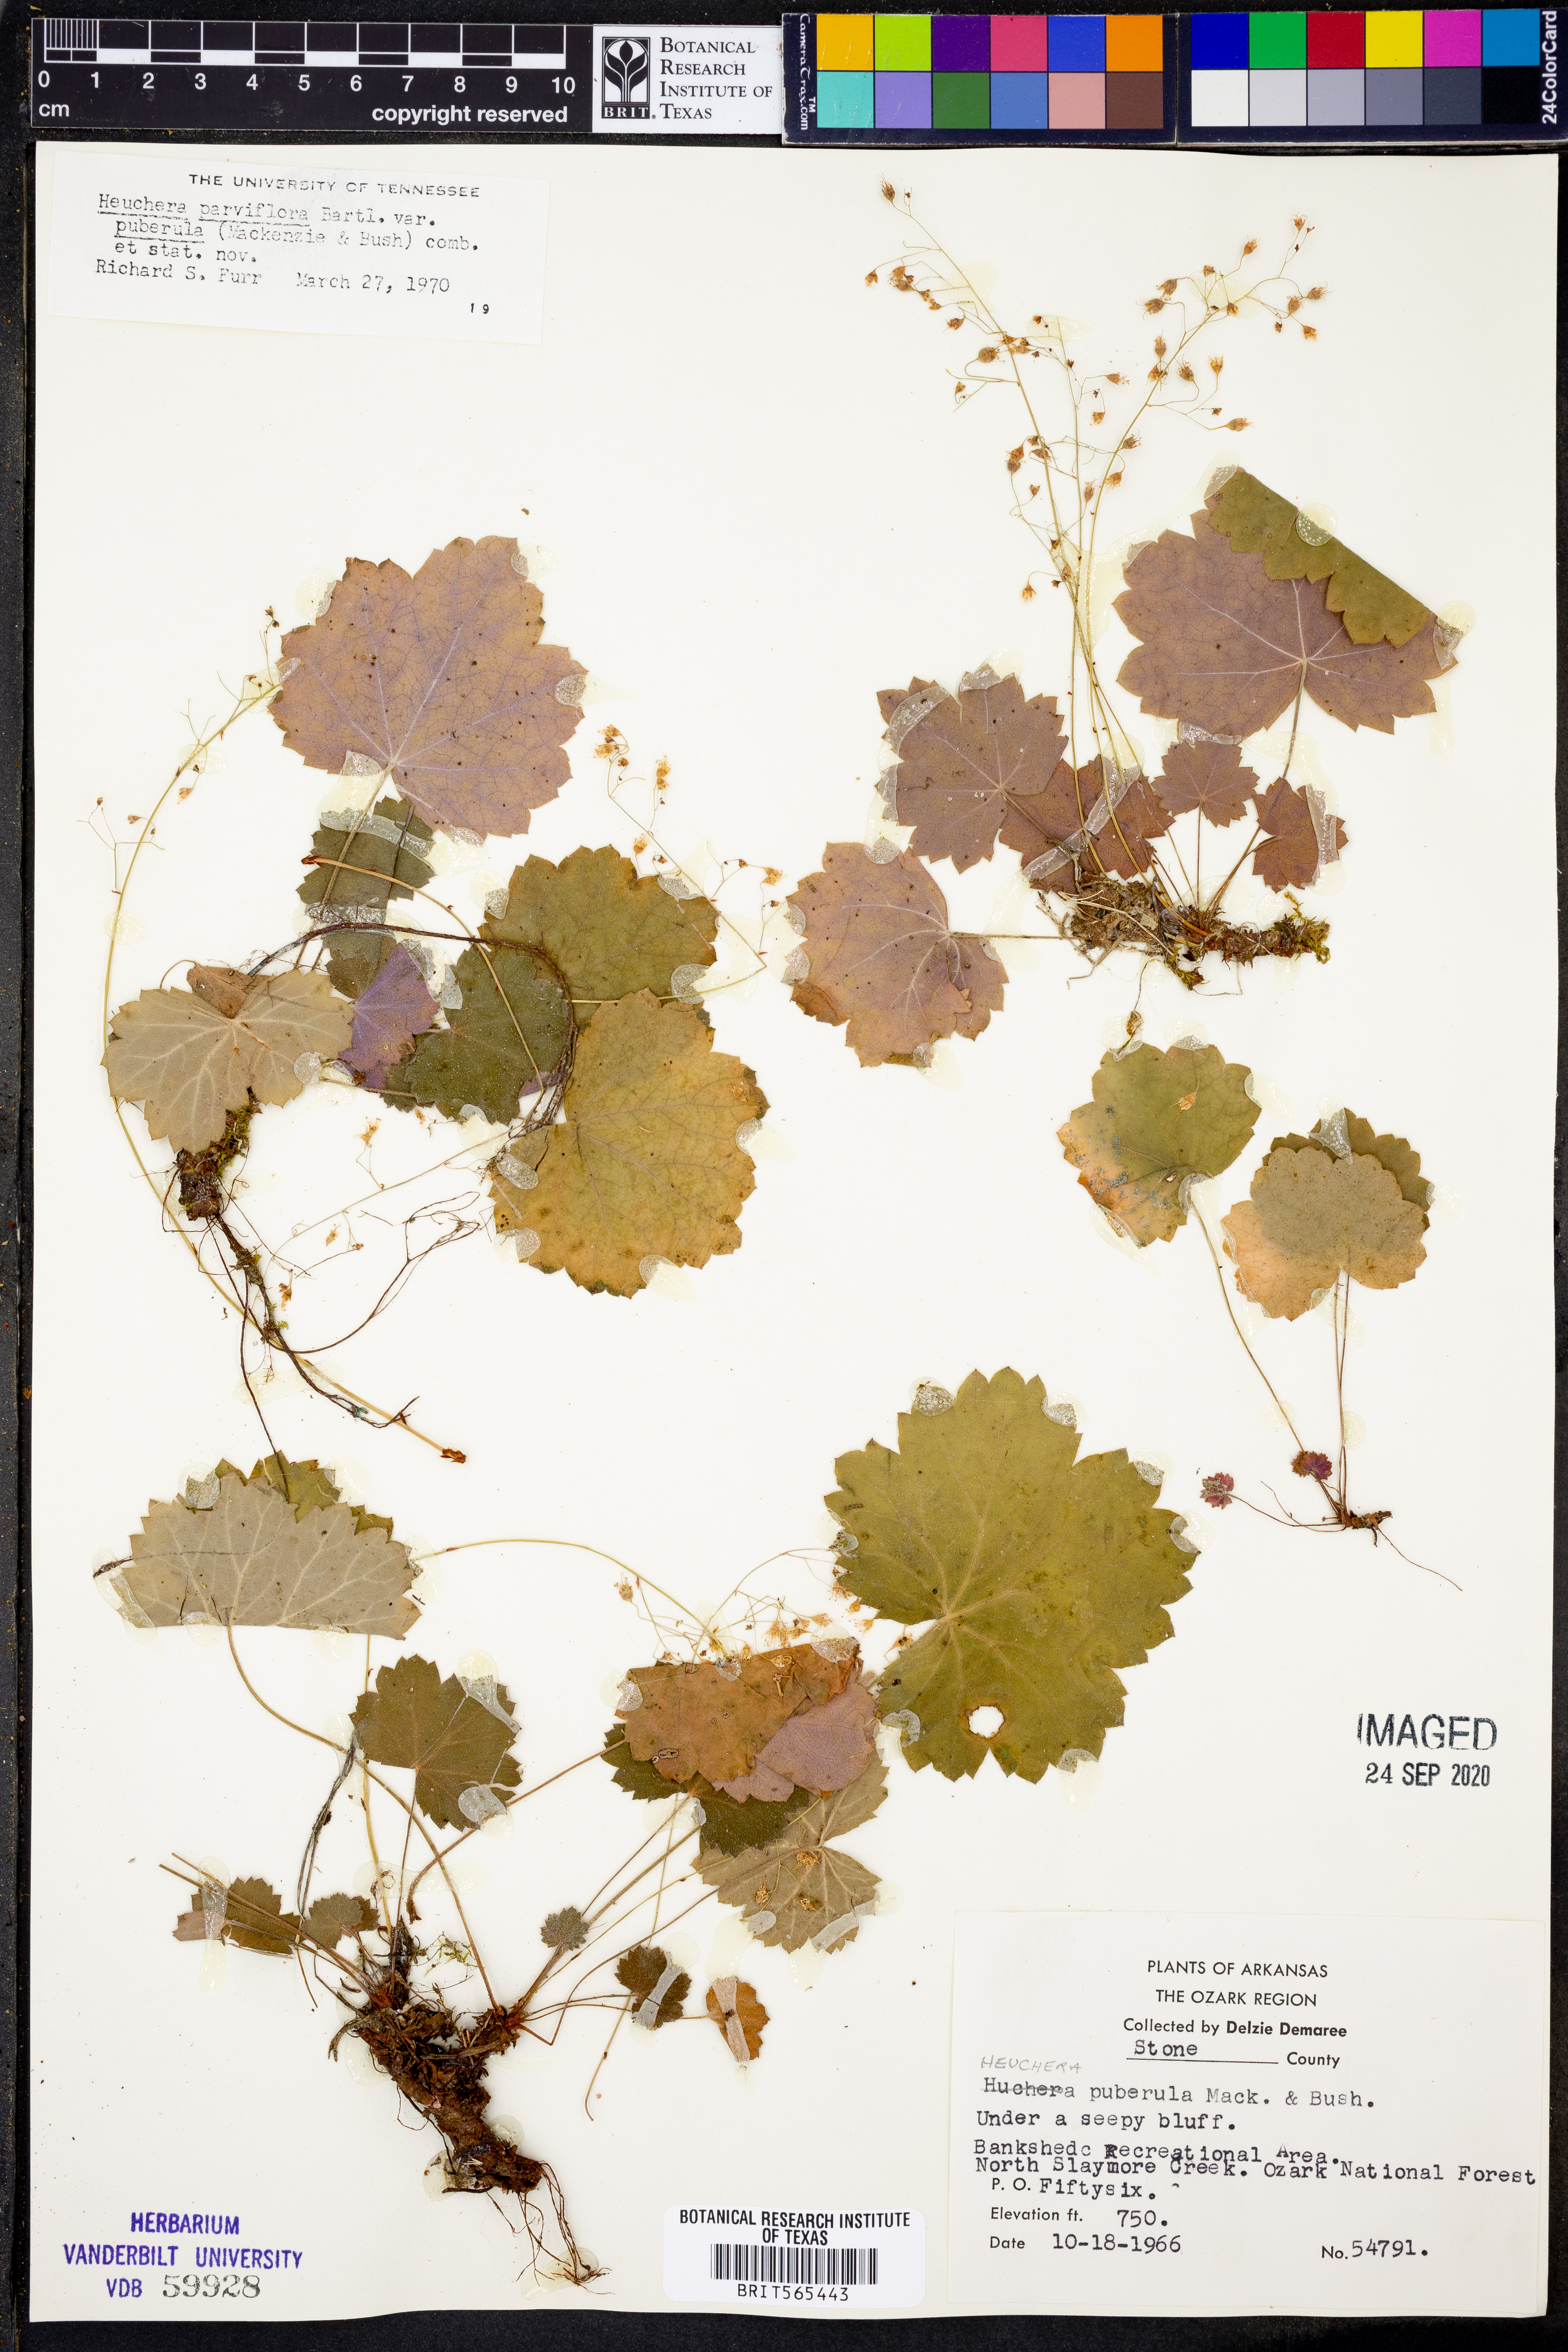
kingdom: Plantae
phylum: Tracheophyta
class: Magnoliopsida
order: Saxifragales
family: Saxifragaceae
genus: Heuchera
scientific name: Heuchera puberula
